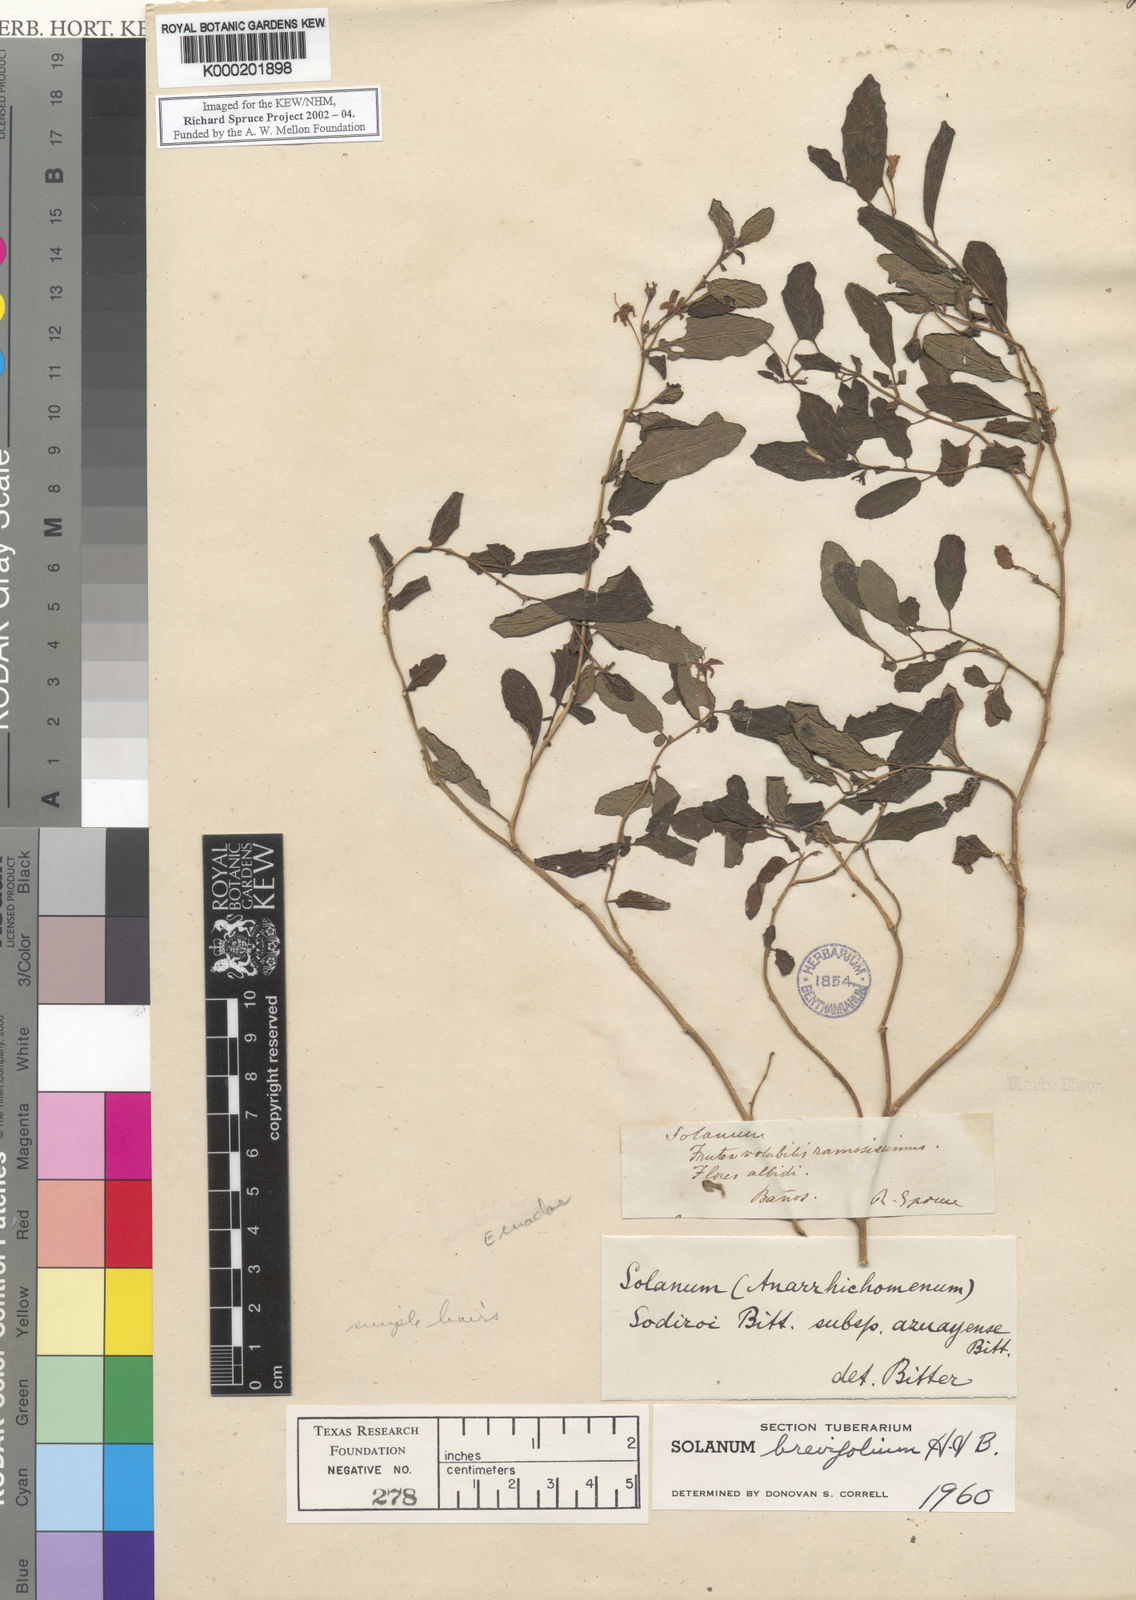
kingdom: Plantae
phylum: Tracheophyta
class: Magnoliopsida
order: Solanales
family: Solanaceae
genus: Solanum
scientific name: Solanum brevifolium
